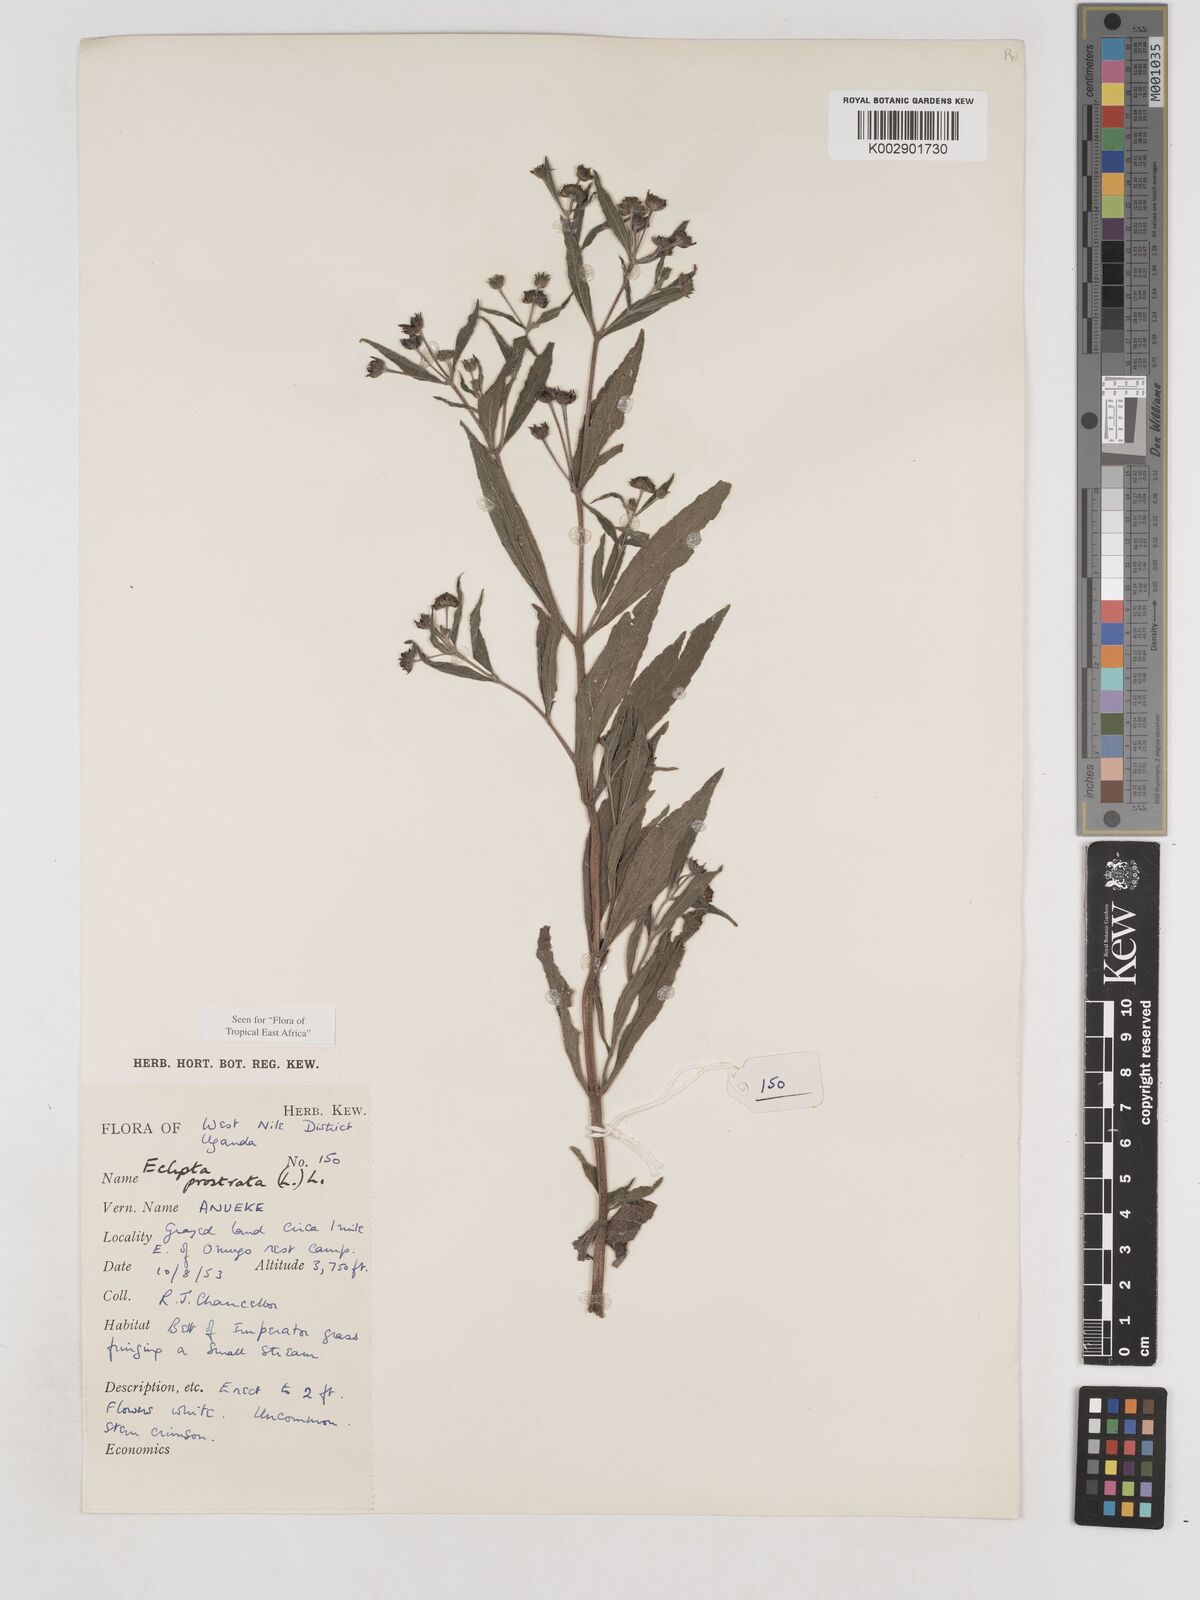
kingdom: Plantae
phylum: Tracheophyta
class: Magnoliopsida
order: Asterales
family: Asteraceae
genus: Eclipta
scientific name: Eclipta alba
